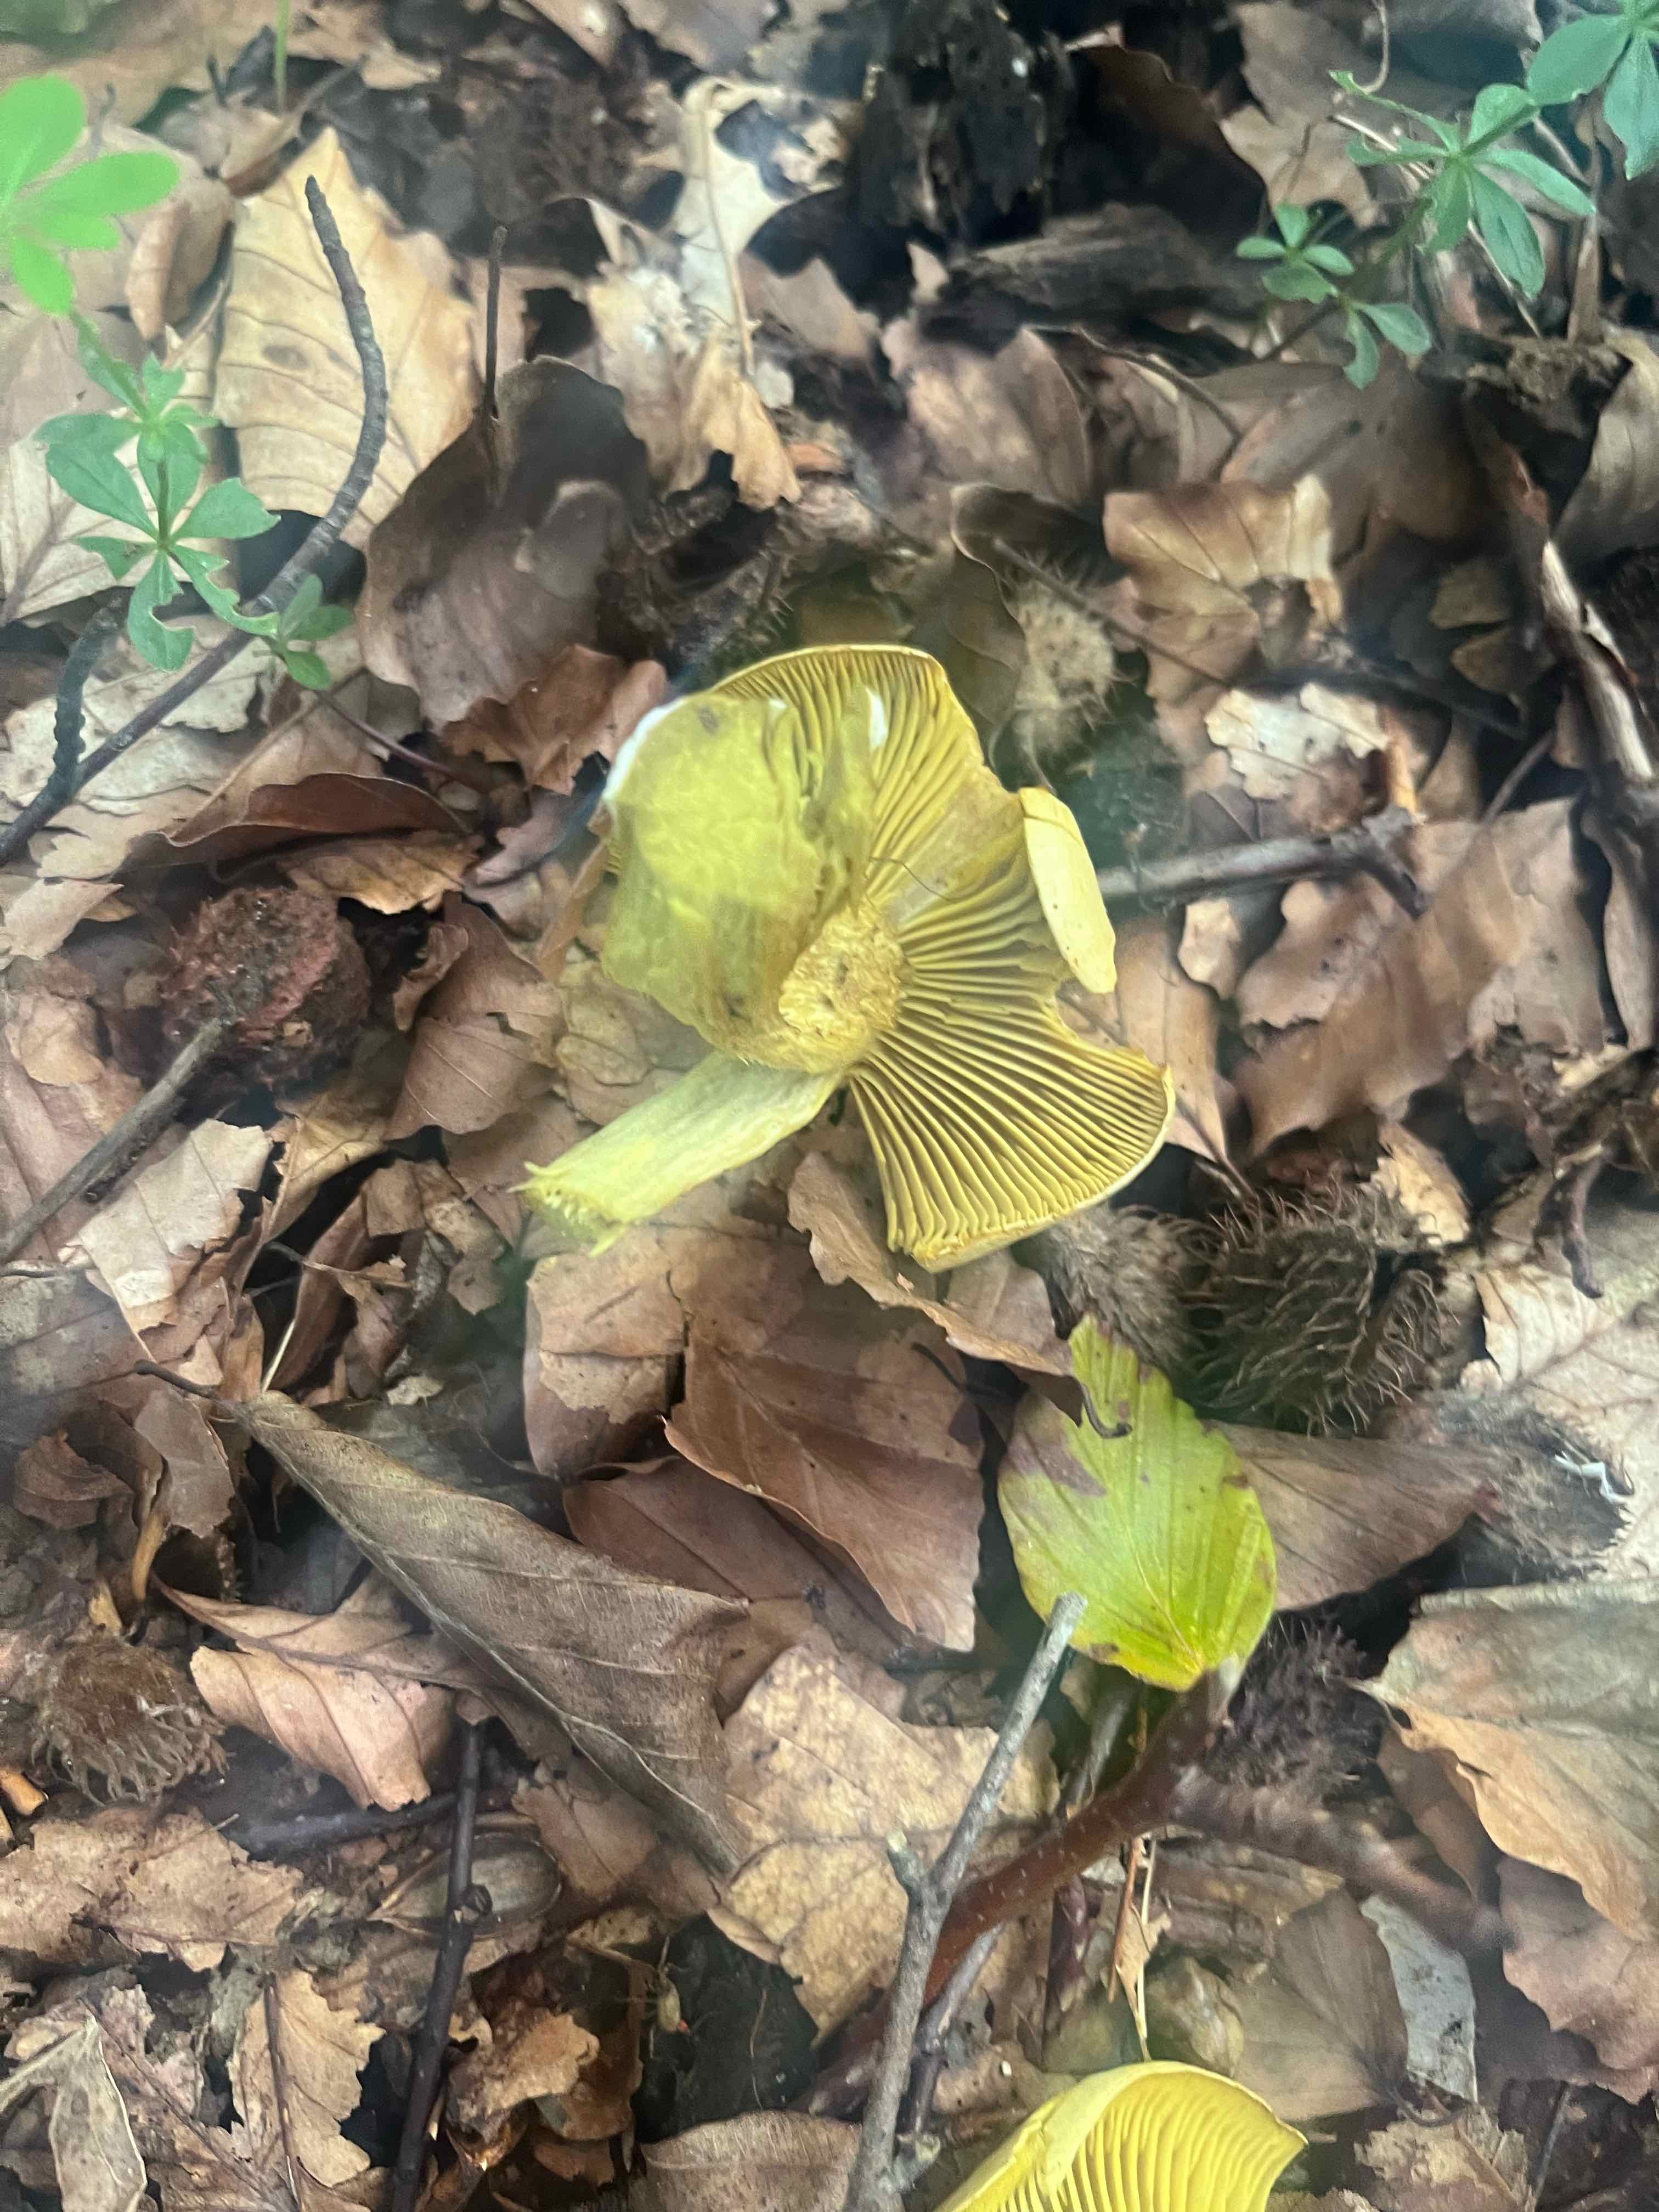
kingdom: Fungi
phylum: Basidiomycota
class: Agaricomycetes
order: Agaricales
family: Tricholomataceae
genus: Tricholoma
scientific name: Tricholoma sulphureum
